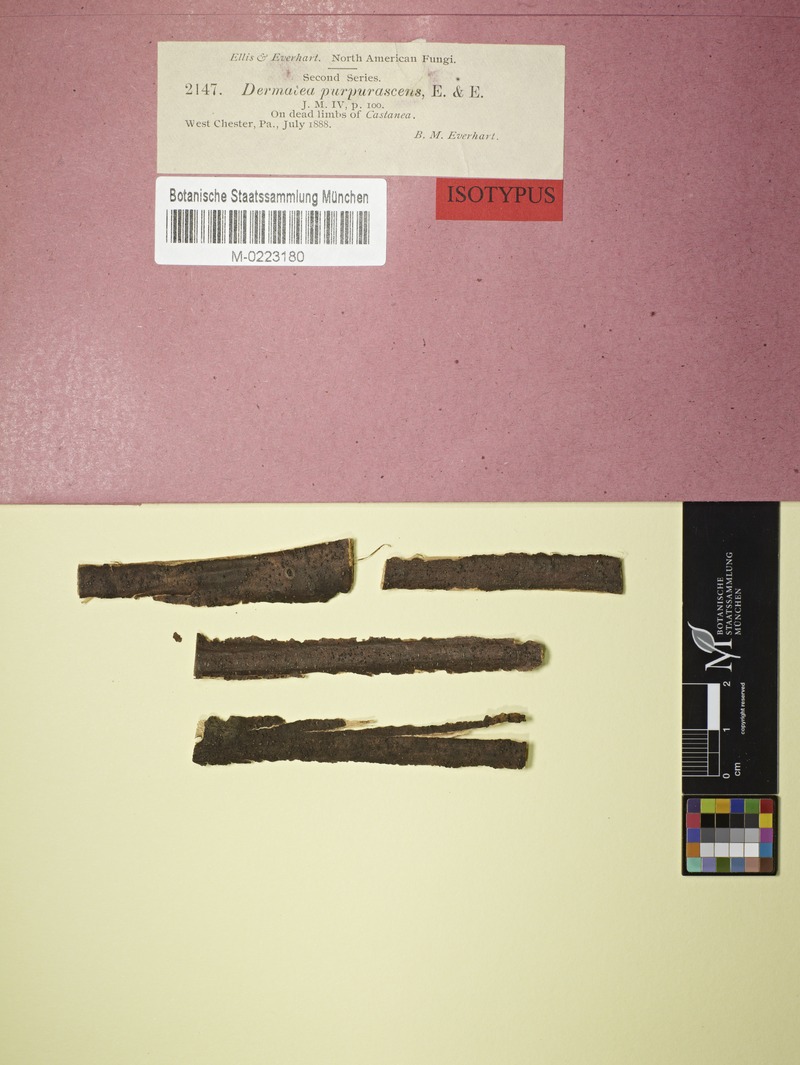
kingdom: Fungi
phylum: Ascomycota
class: Leotiomycetes
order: Helotiales
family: Helotiaceae
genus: Ascoconidium
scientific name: Ascoconidium purpurascens
